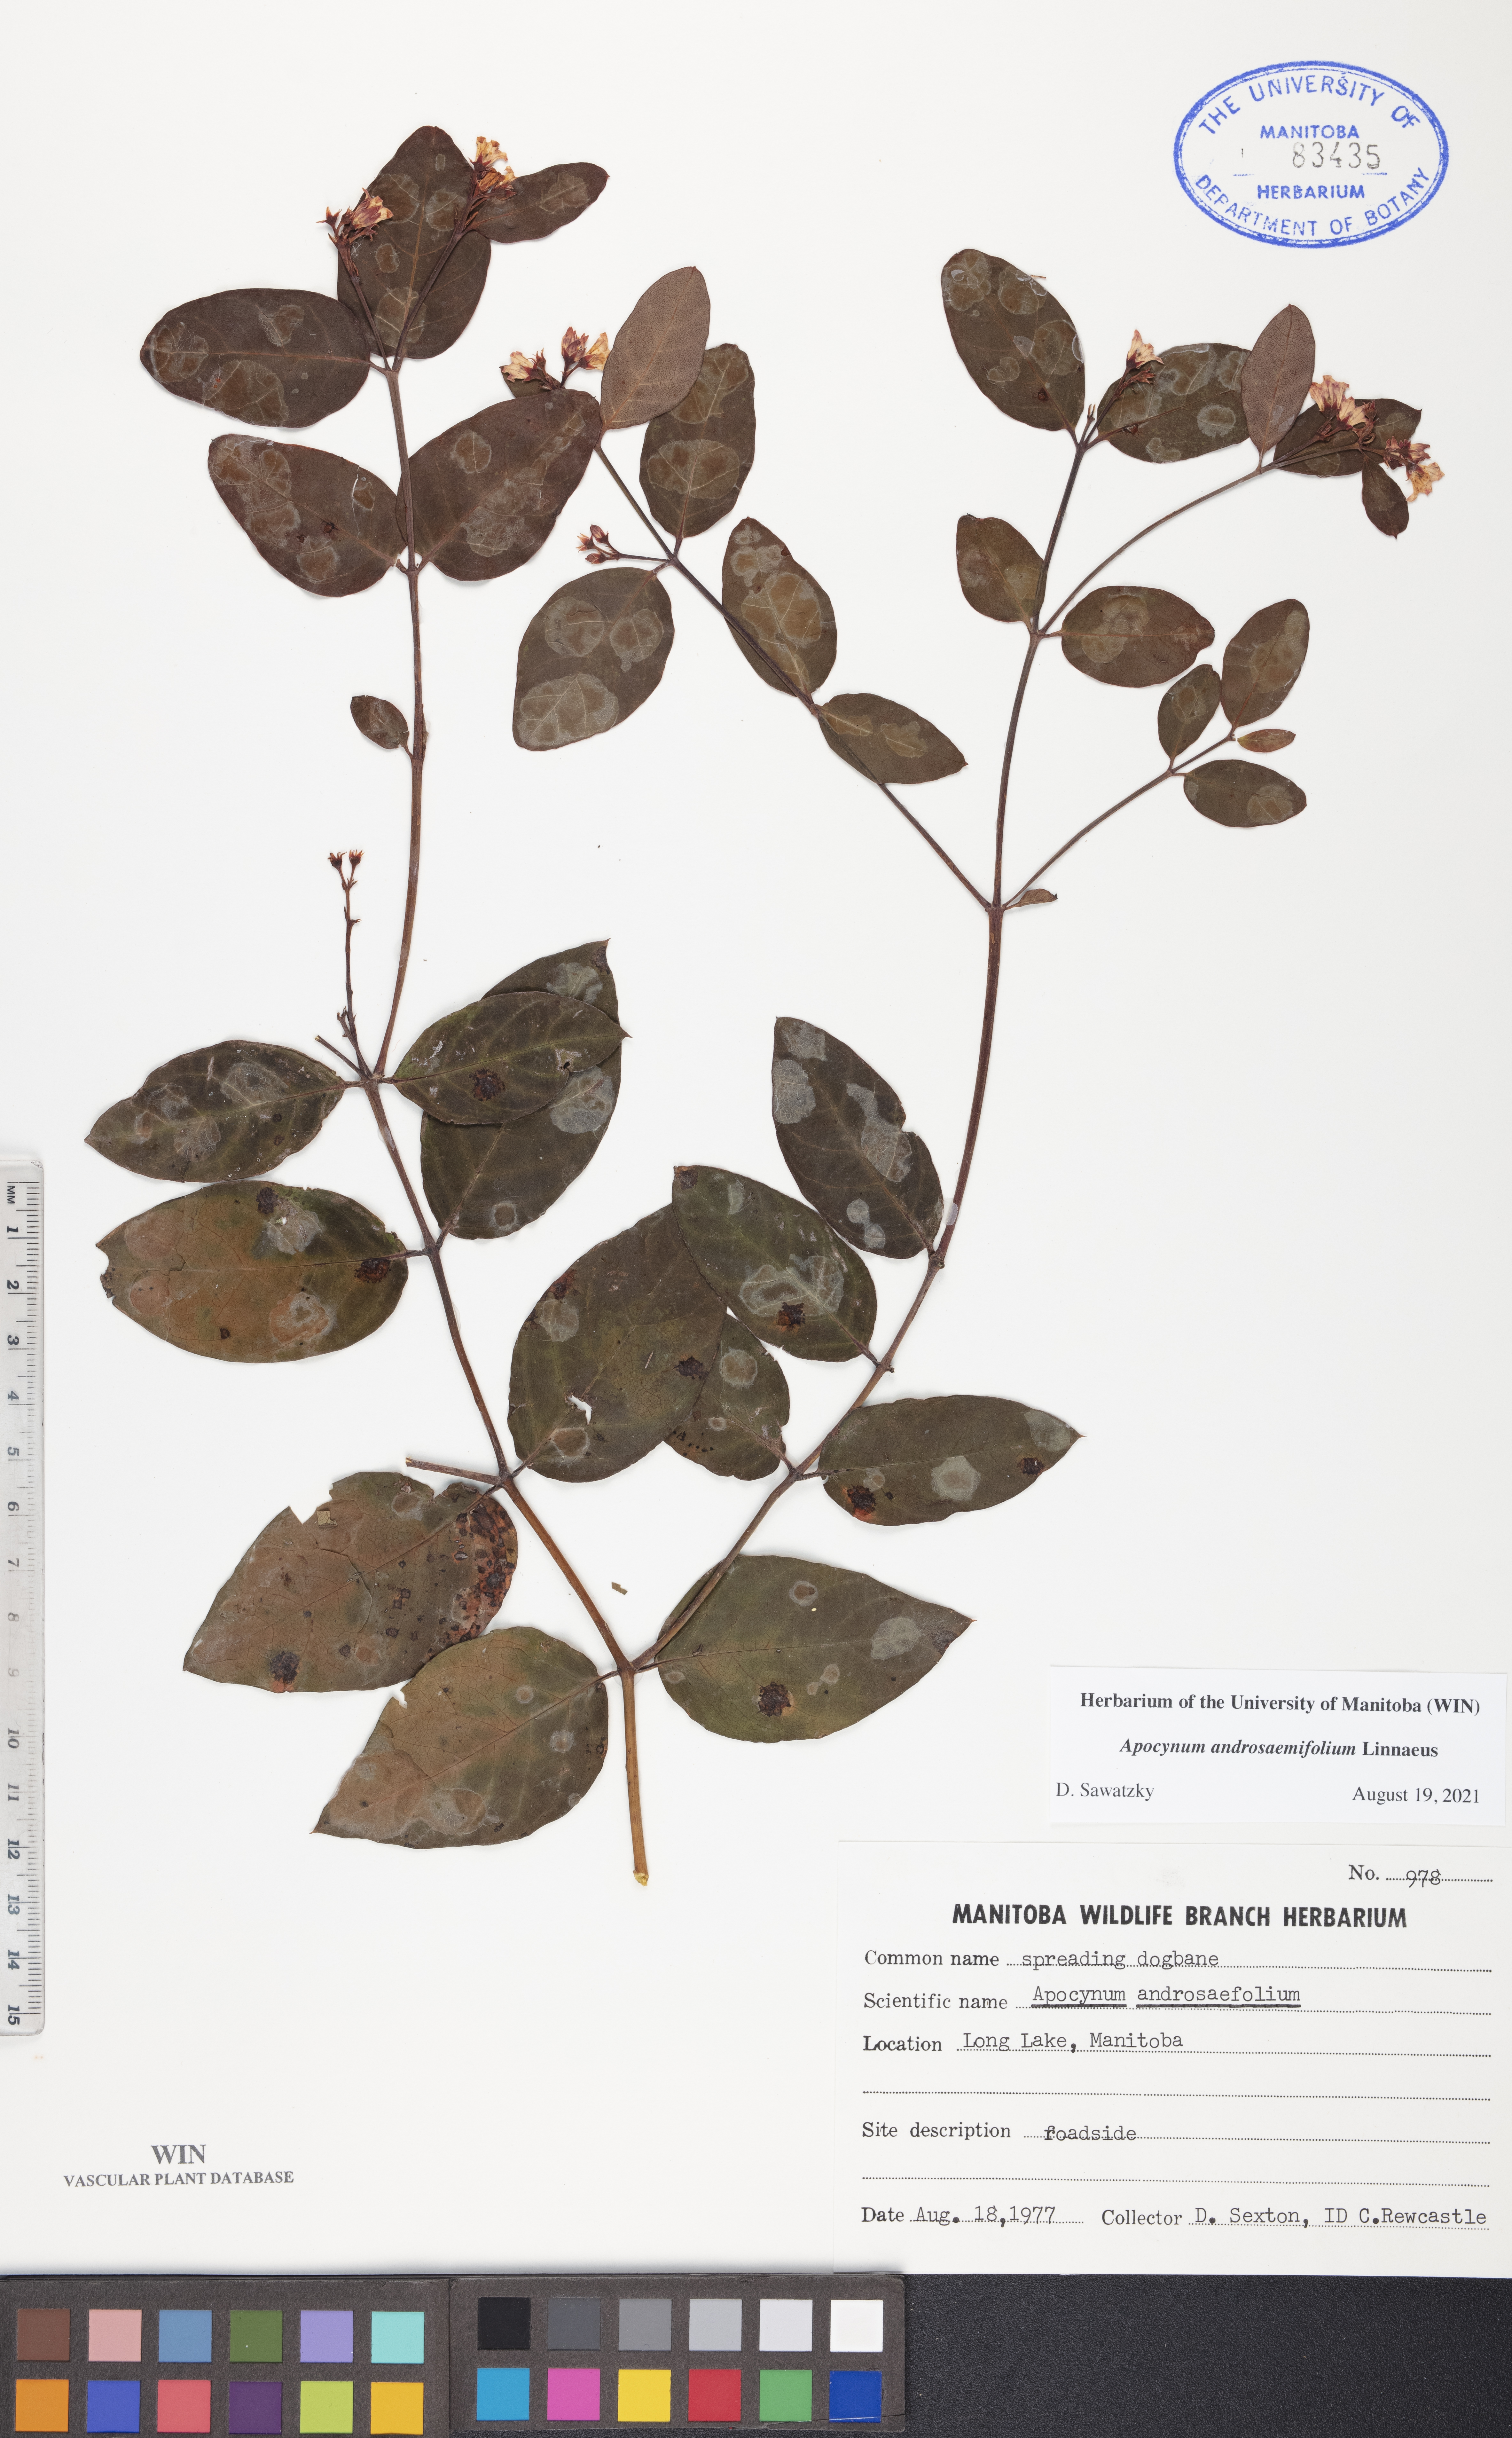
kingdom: Plantae
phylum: Tracheophyta
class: Magnoliopsida
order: Gentianales
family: Apocynaceae
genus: Apocynum
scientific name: Apocynum androsaemifolium
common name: Spreading dogbane
